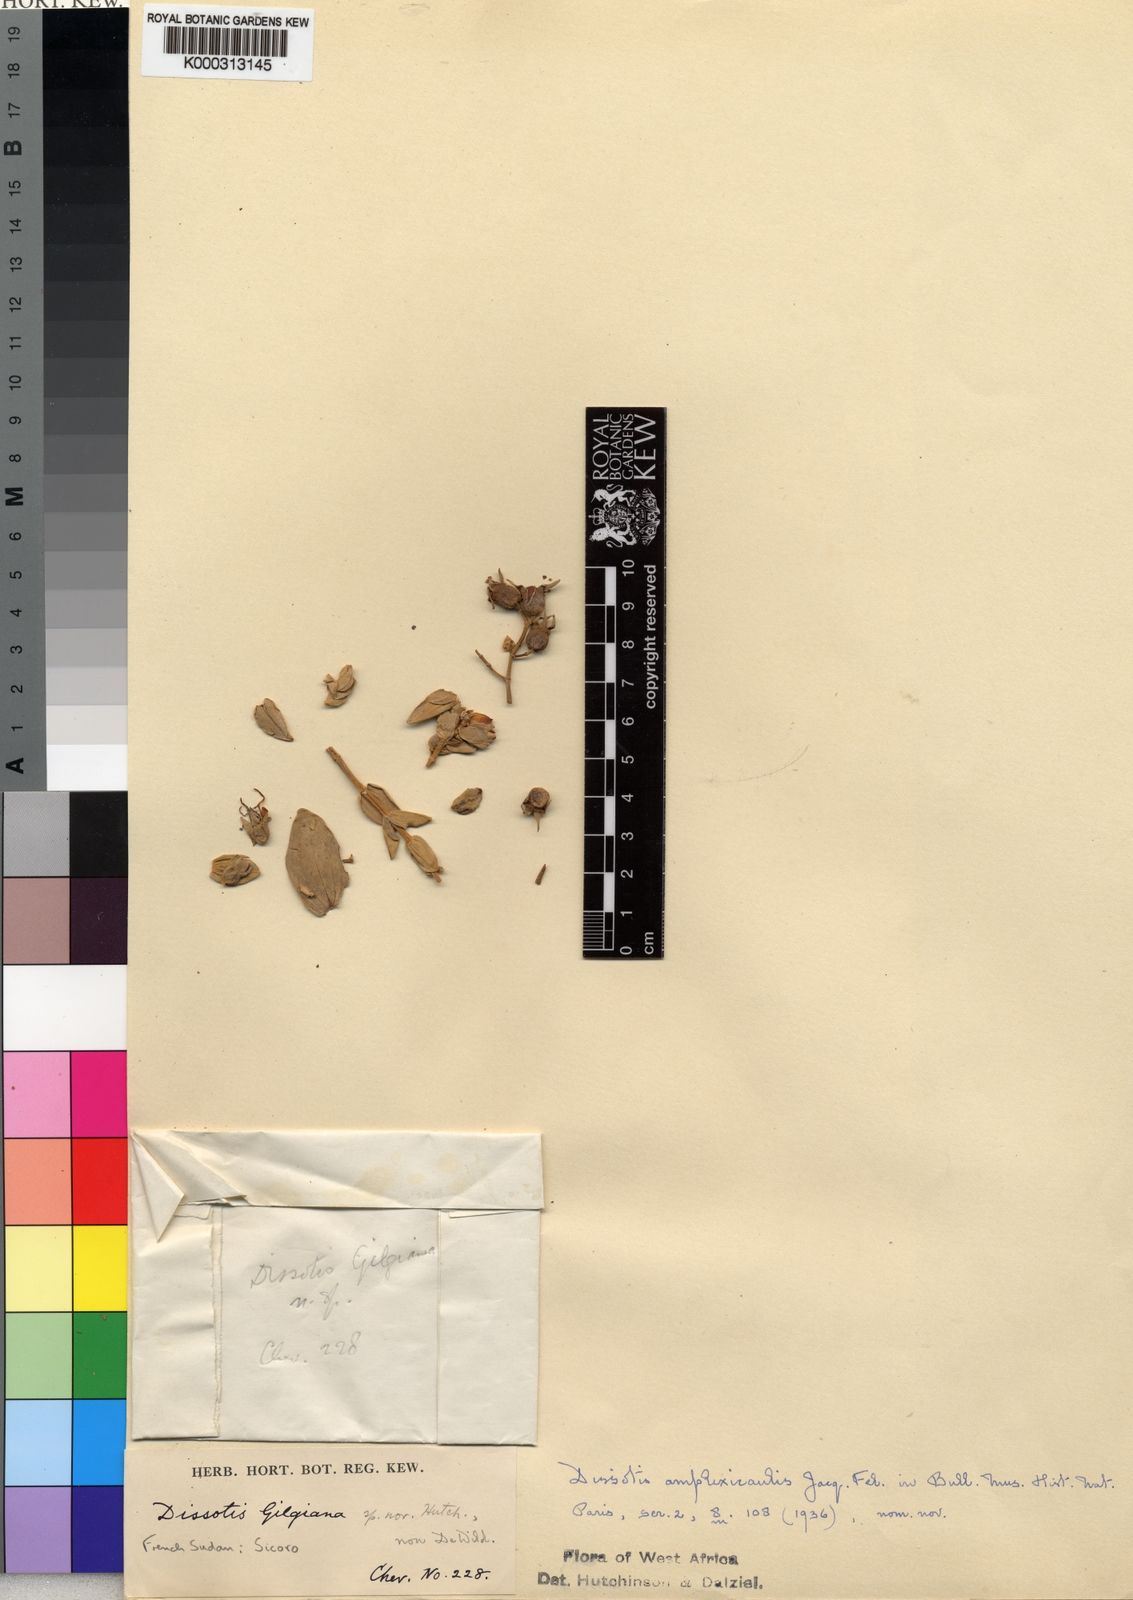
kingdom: Plantae
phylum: Tracheophyta
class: Magnoliopsida
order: Myrtales
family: Melastomataceae
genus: Argyrella
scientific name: Argyrella
